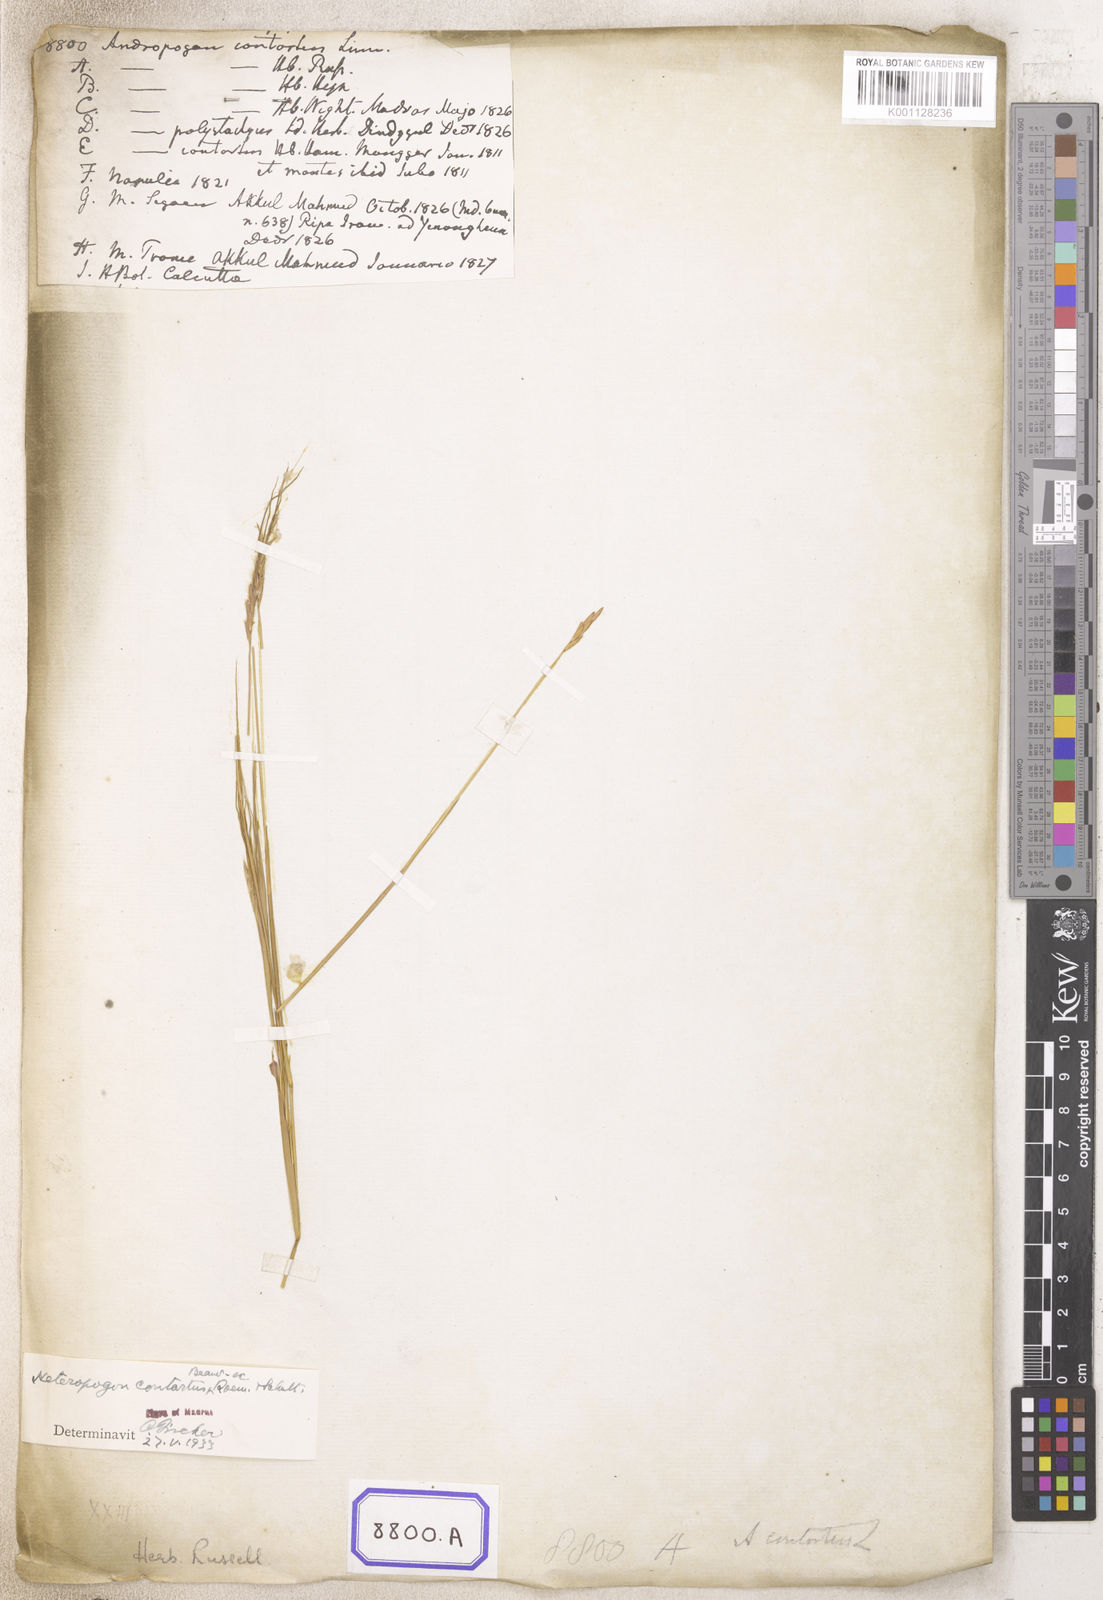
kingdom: Plantae
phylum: Tracheophyta
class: Liliopsida
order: Poales
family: Poaceae
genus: Heteropogon
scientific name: Heteropogon contortus
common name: Tanglehead
